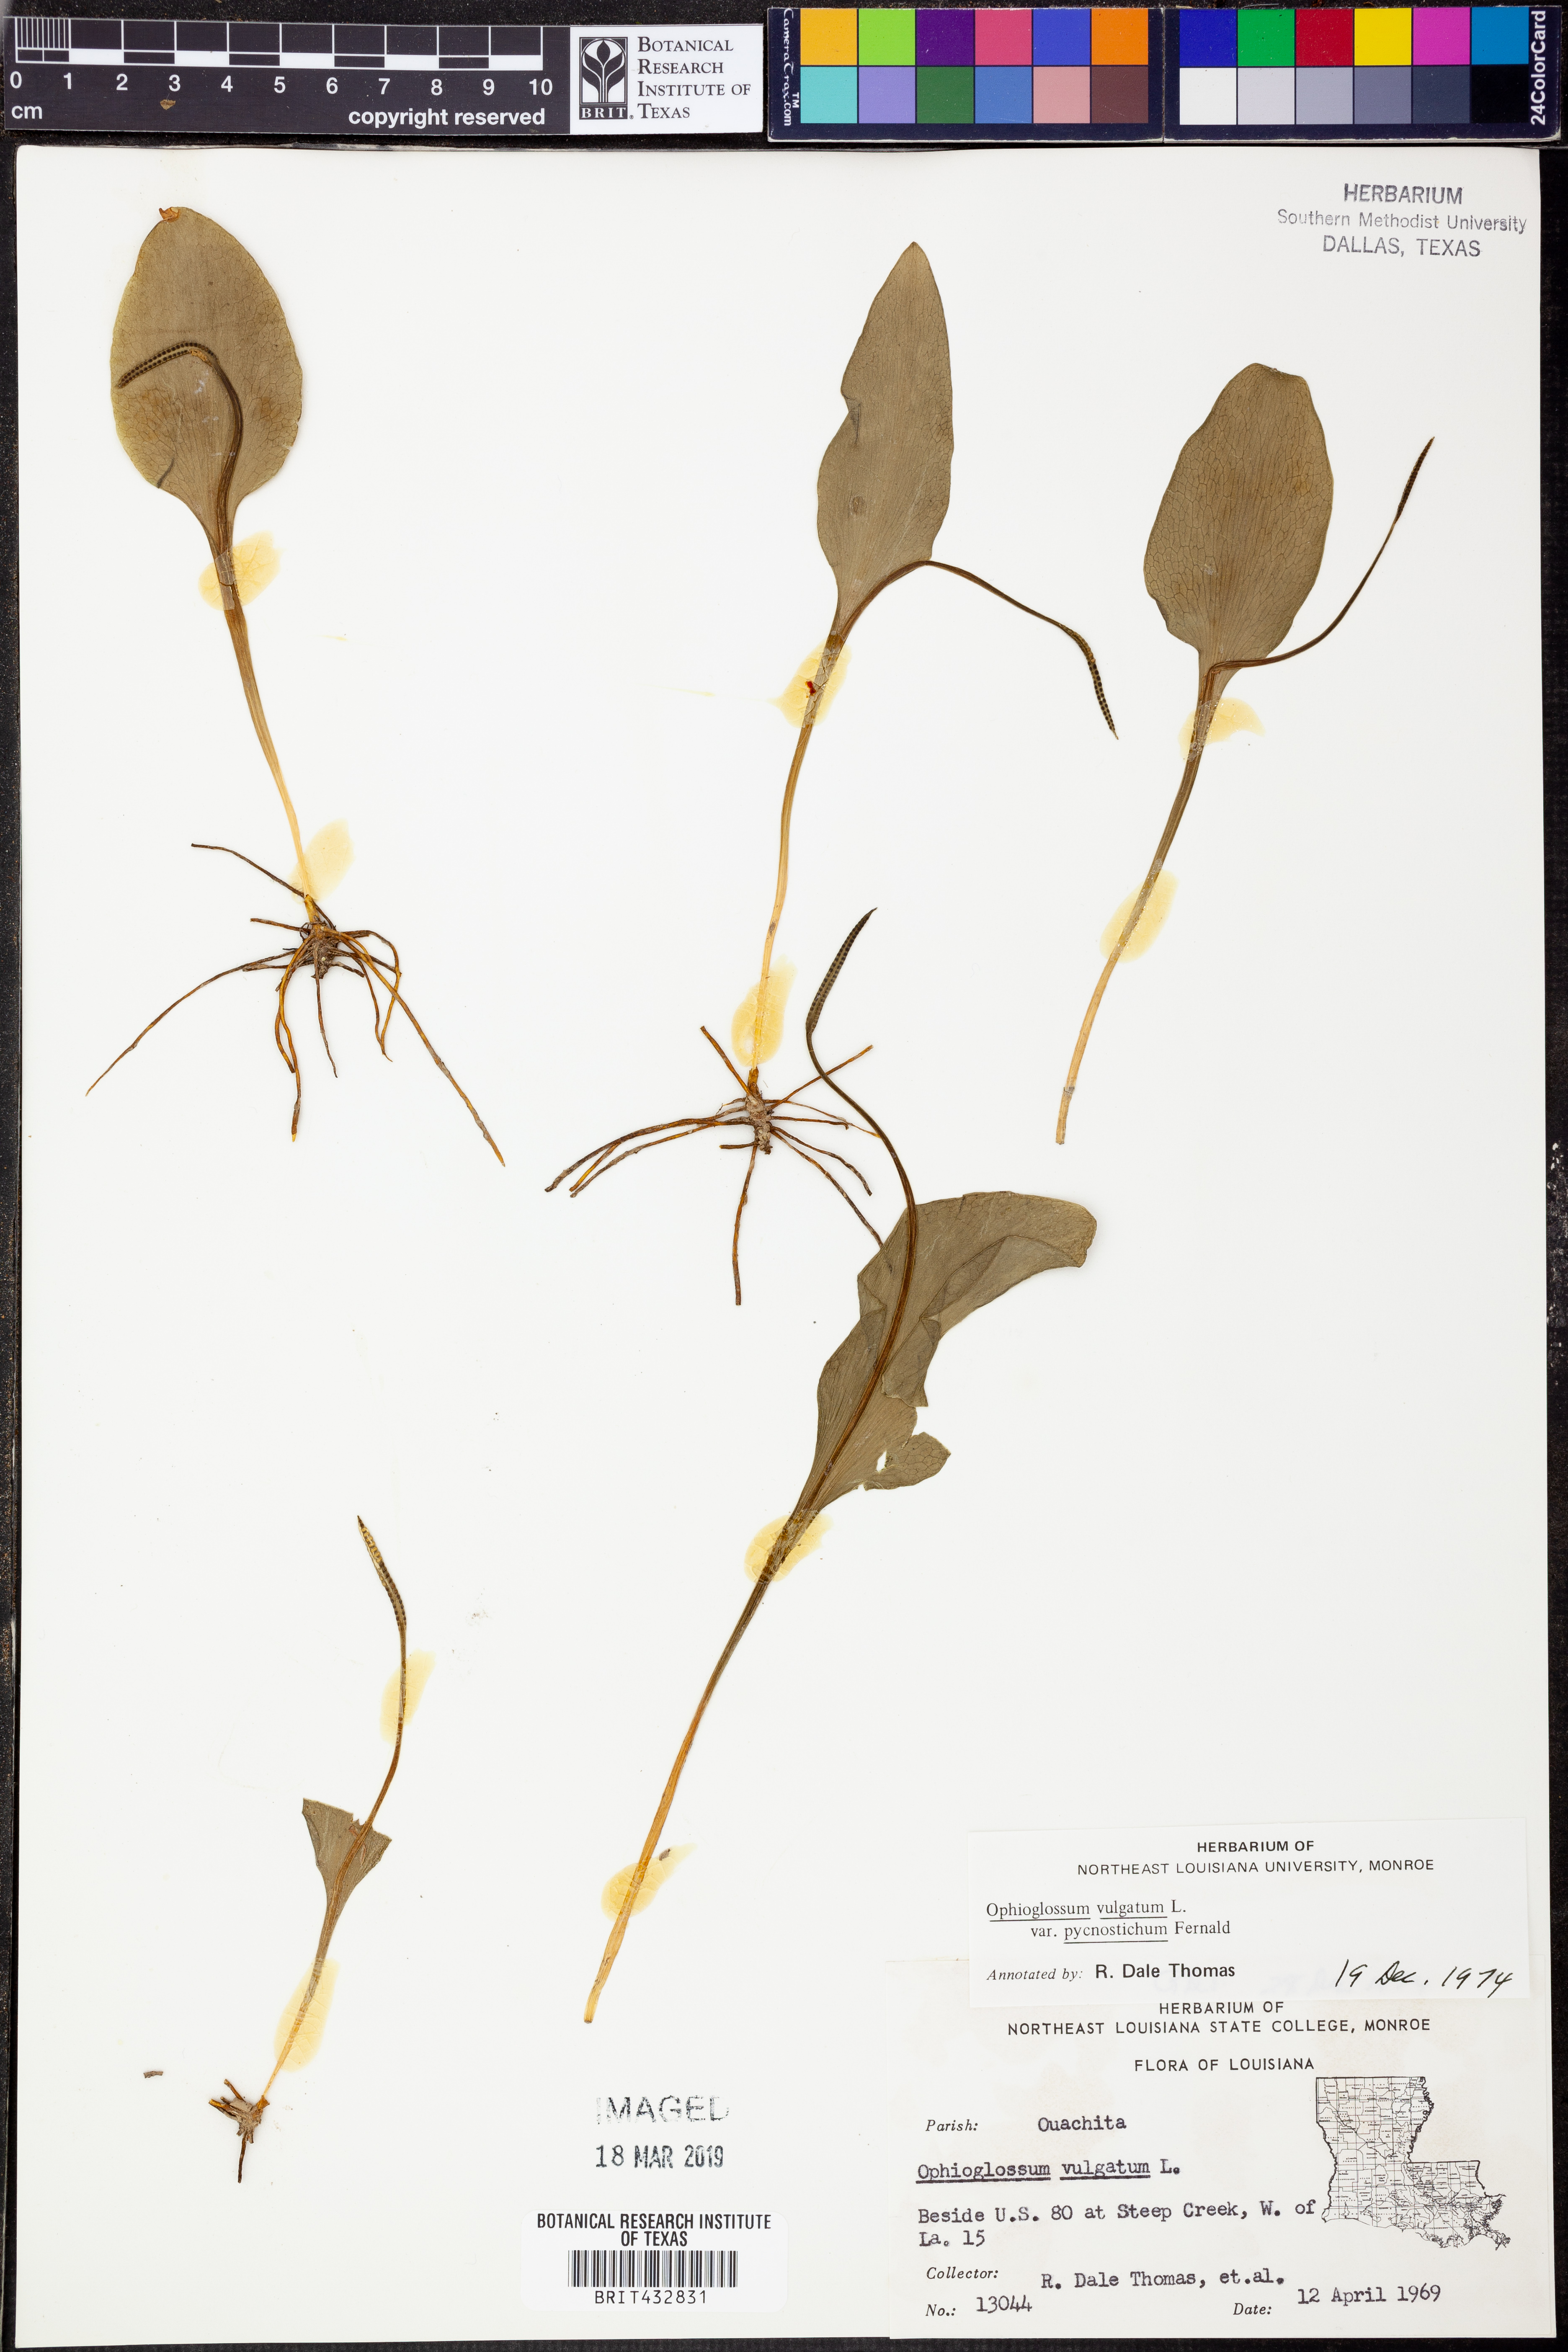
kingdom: Plantae
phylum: Tracheophyta
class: Polypodiopsida
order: Ophioglossales
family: Ophioglossaceae
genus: Ophioglossum
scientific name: Ophioglossum vulgatum
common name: Adder's-tongue
